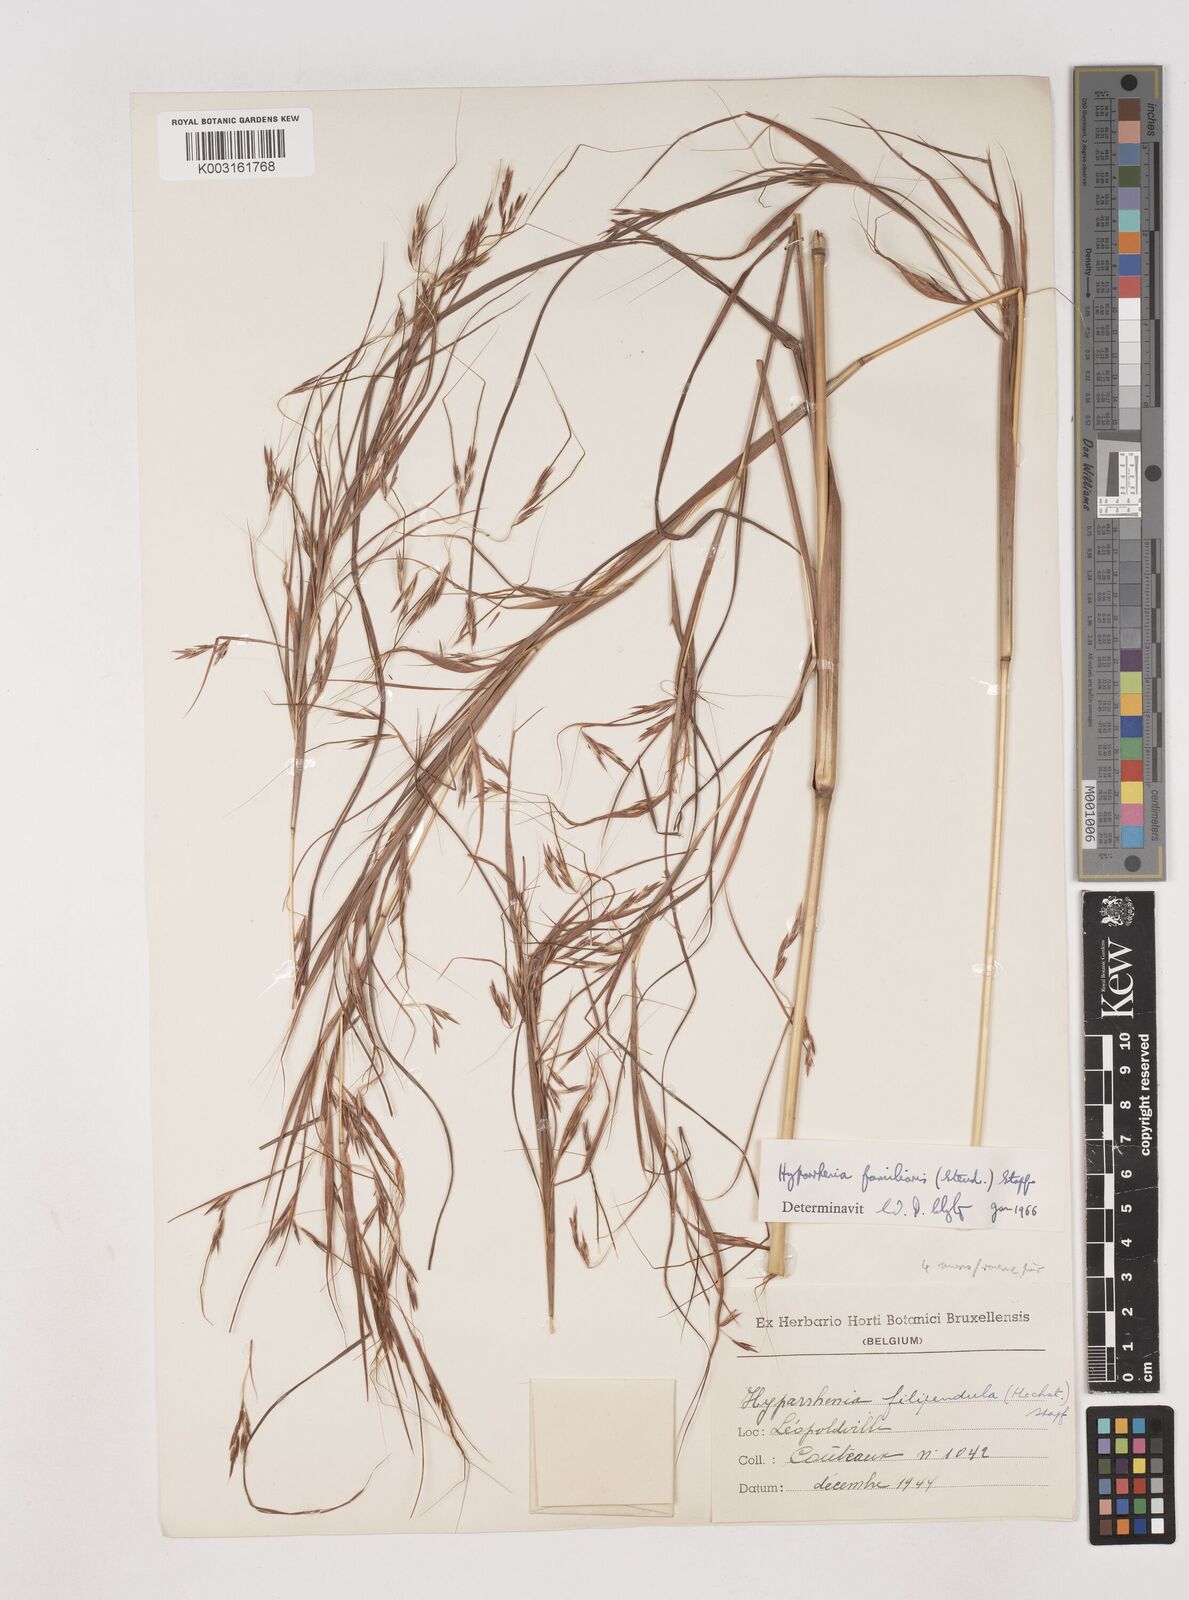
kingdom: Plantae
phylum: Tracheophyta
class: Liliopsida
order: Poales
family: Poaceae
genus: Hyparrhenia
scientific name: Hyparrhenia familiaris
